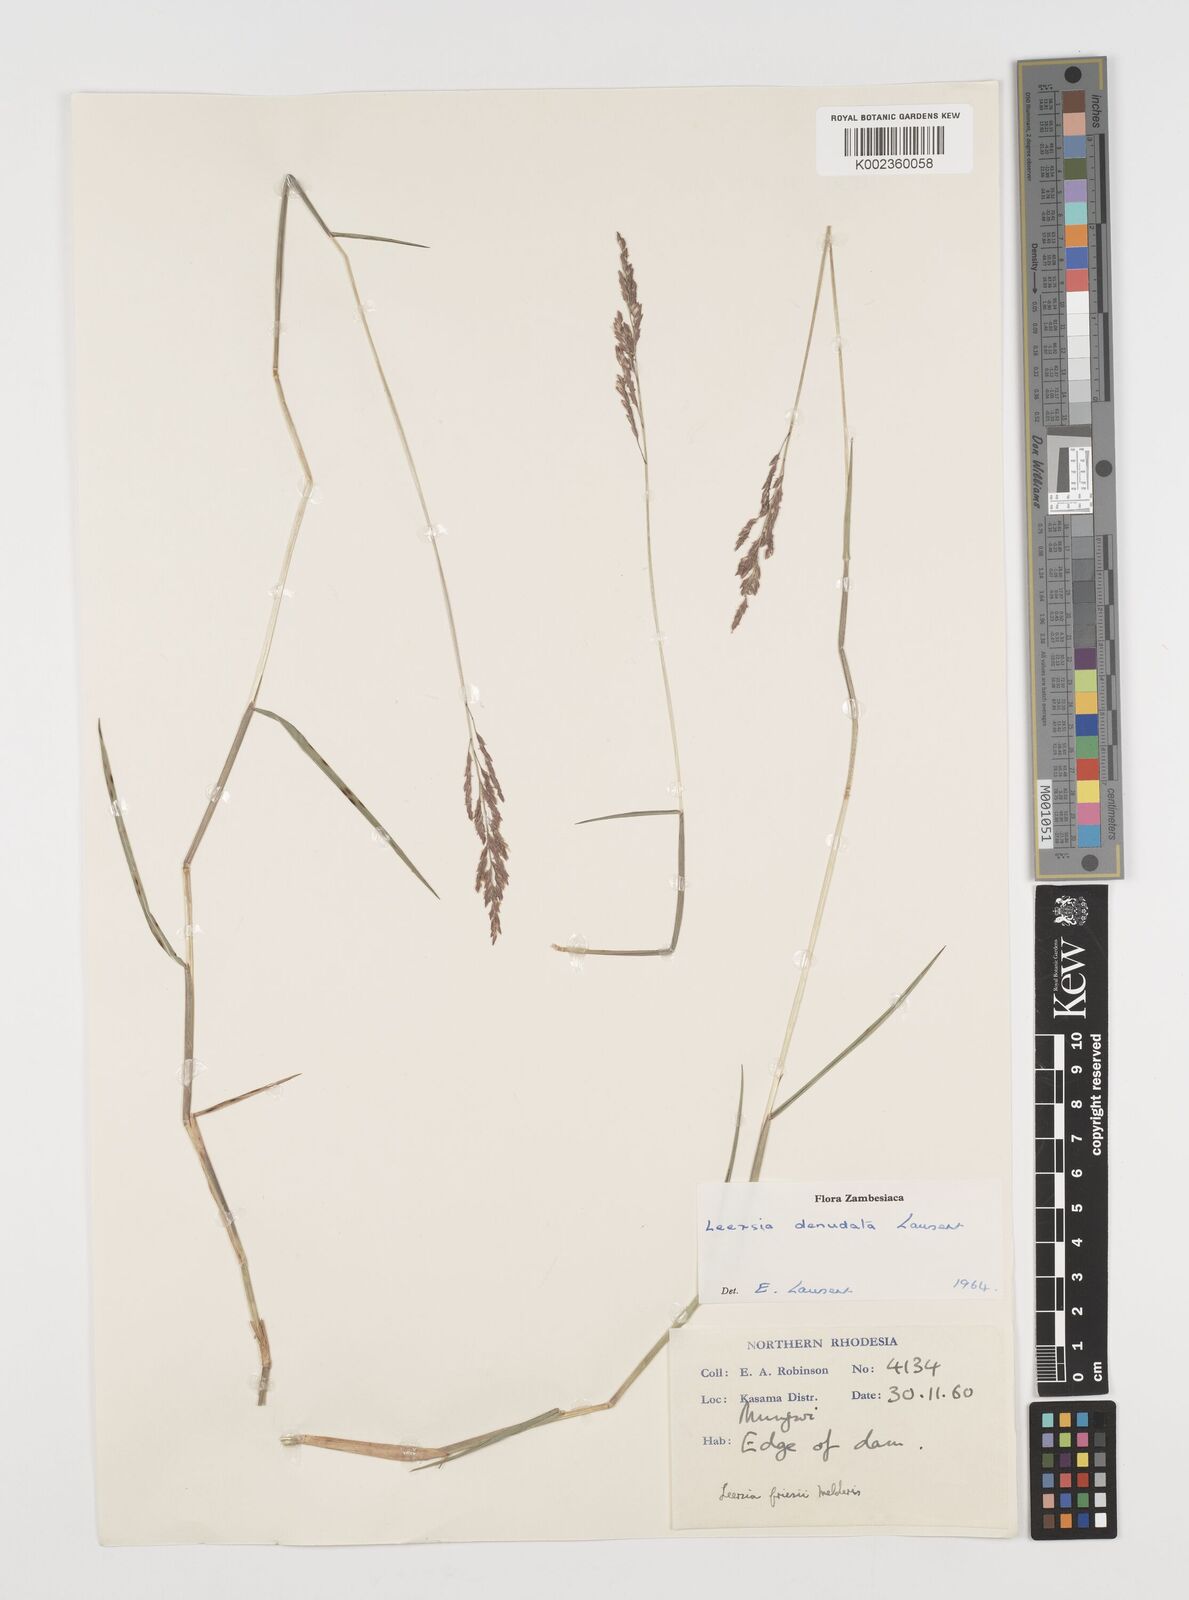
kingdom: Plantae
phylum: Tracheophyta
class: Liliopsida
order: Poales
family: Poaceae
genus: Leersia
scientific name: Leersia denudata
